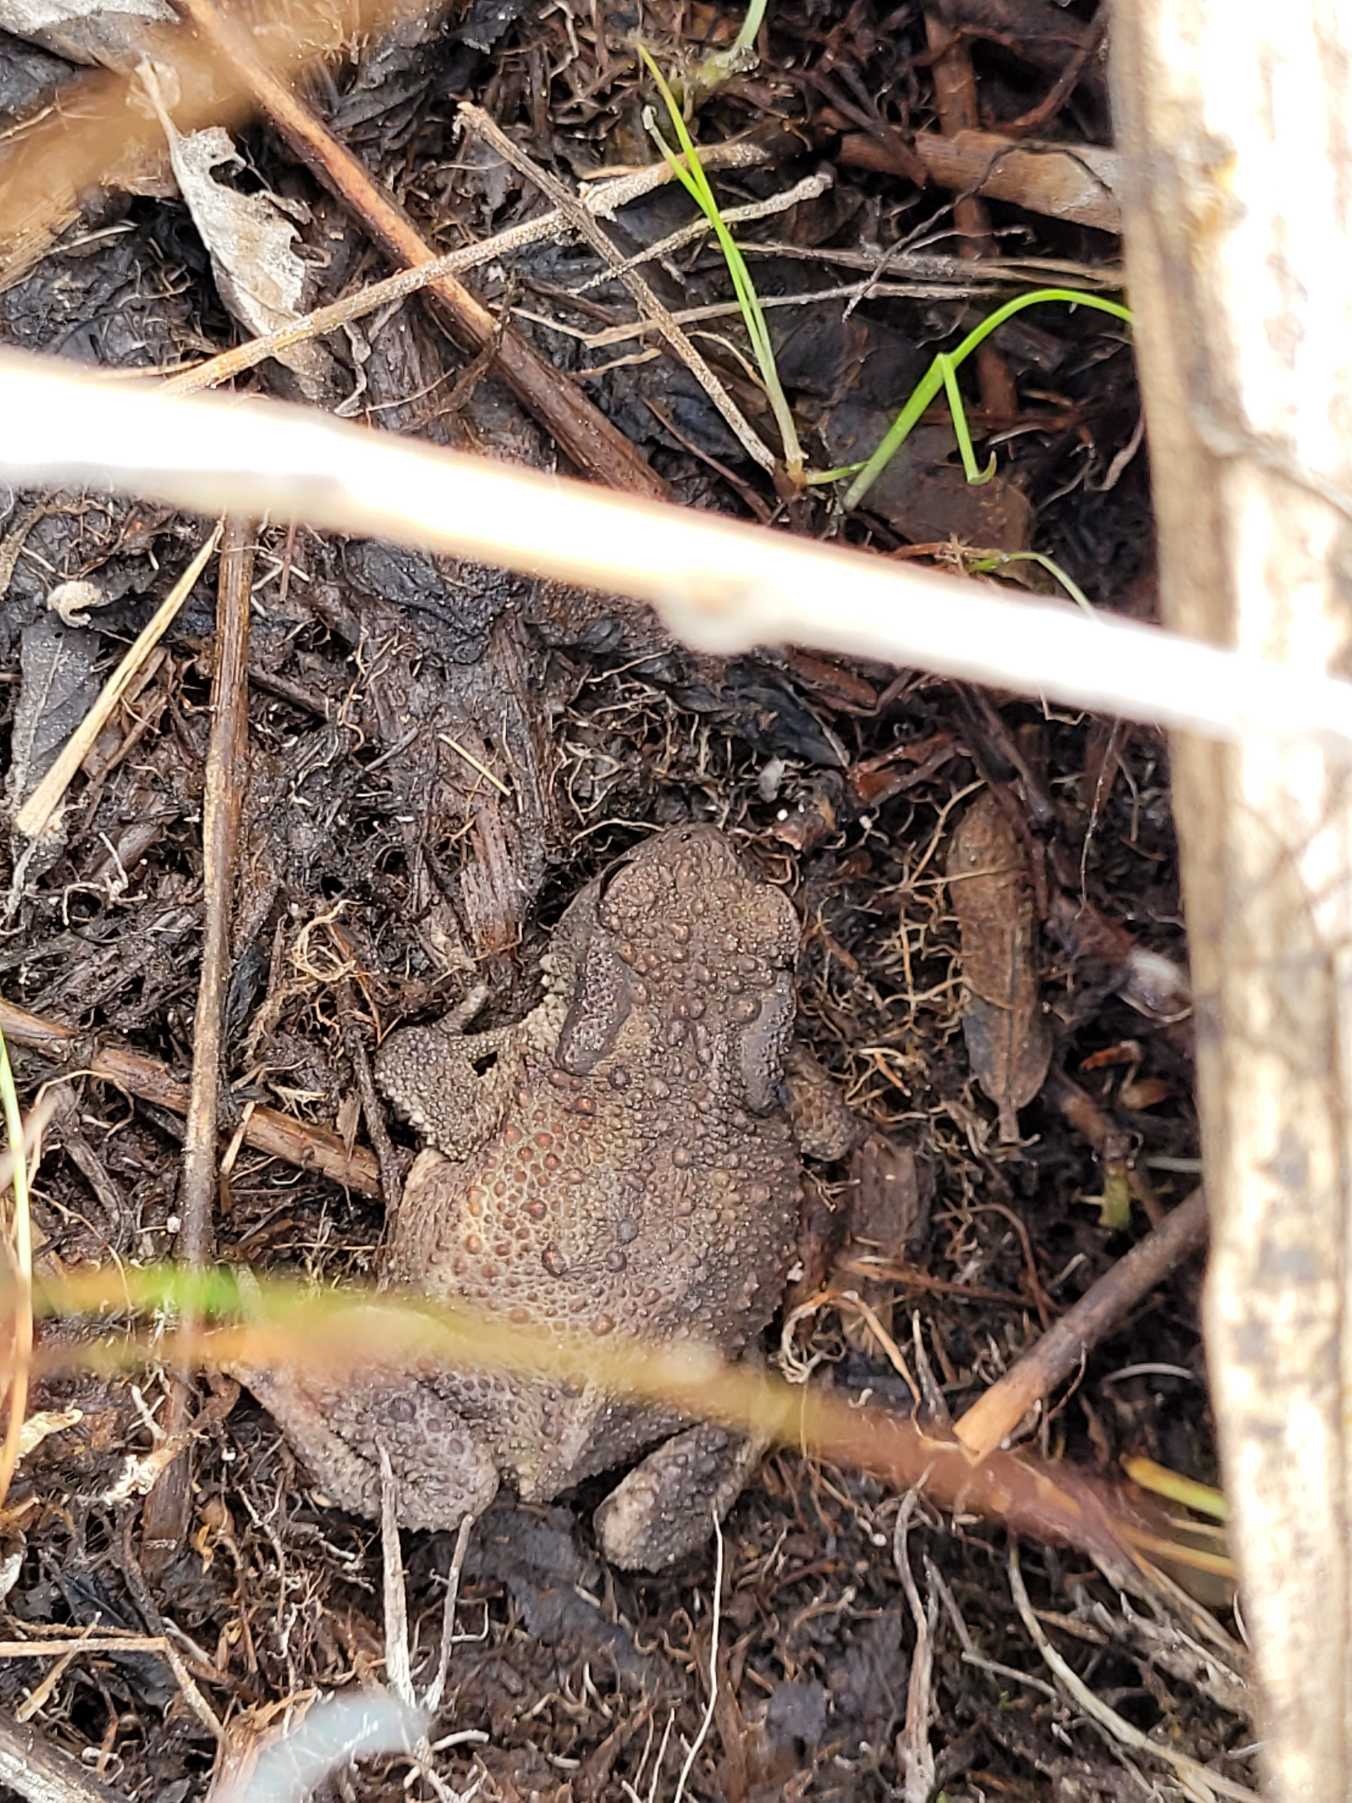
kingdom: Animalia
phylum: Chordata
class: Amphibia
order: Anura
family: Bufonidae
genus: Bufo
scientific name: Bufo bufo
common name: Skrubtudse
